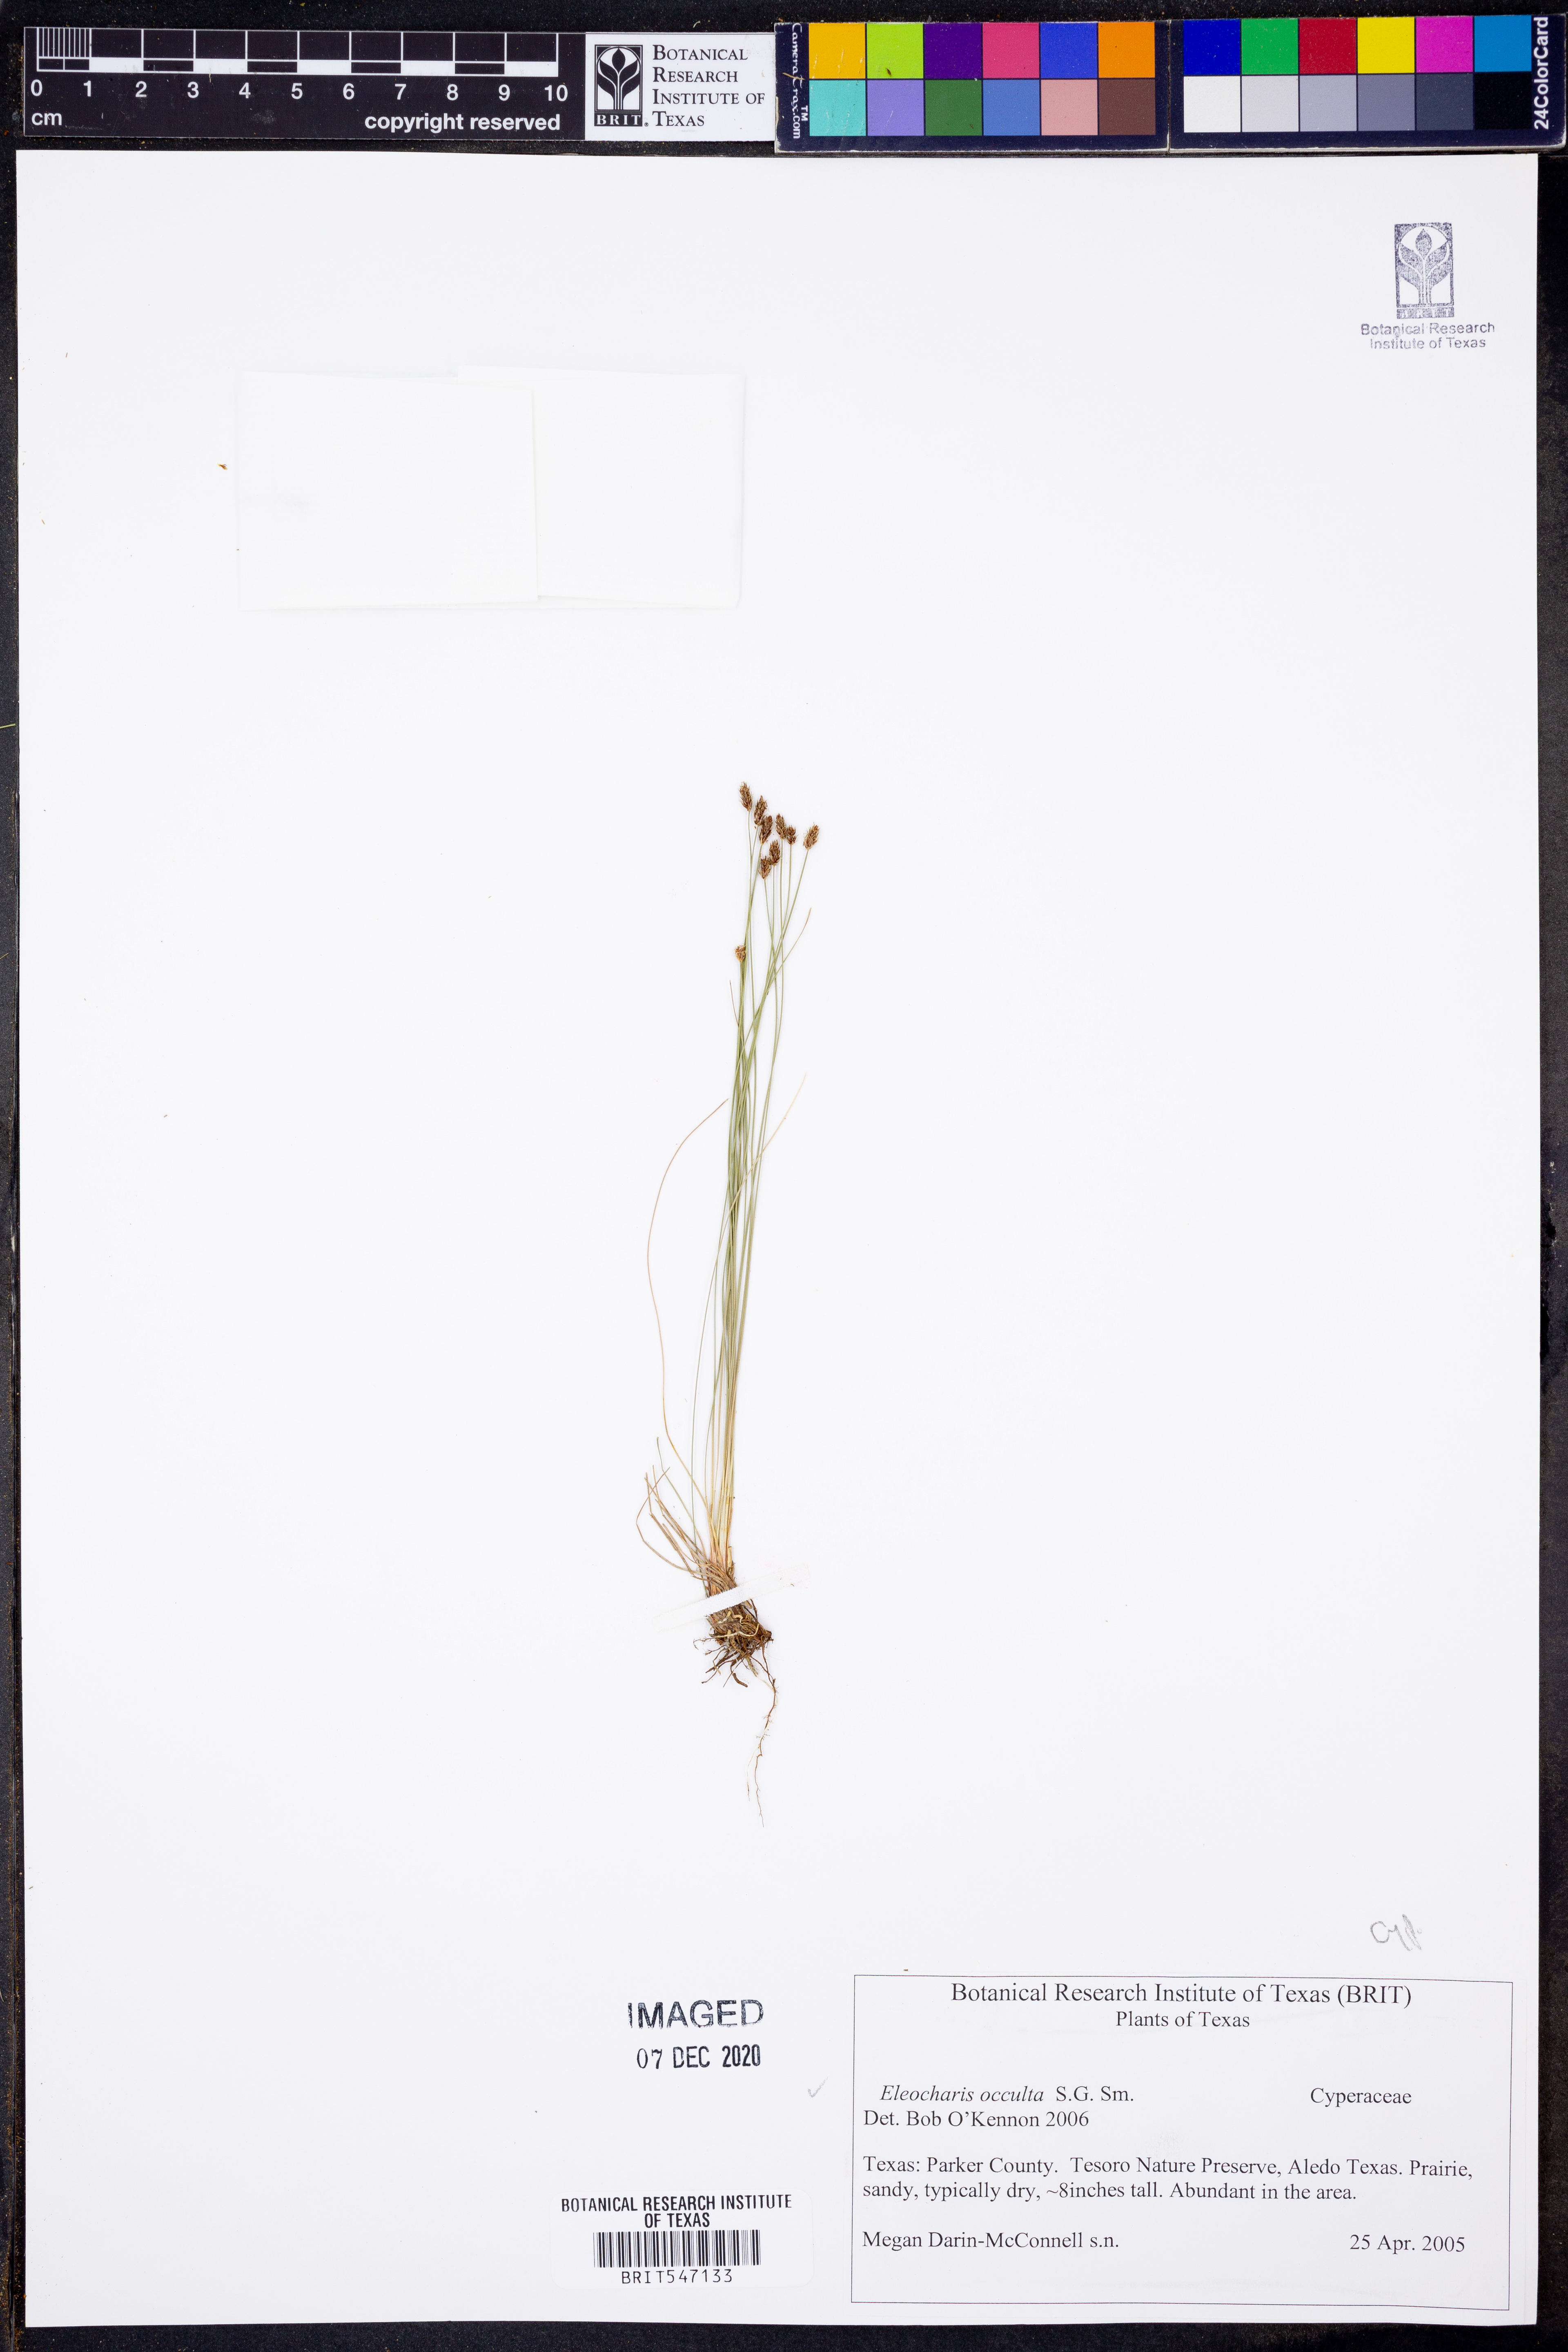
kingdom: Plantae
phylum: Tracheophyta
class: Liliopsida
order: Poales
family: Cyperaceae
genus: Eleocharis
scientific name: Eleocharis occulta
